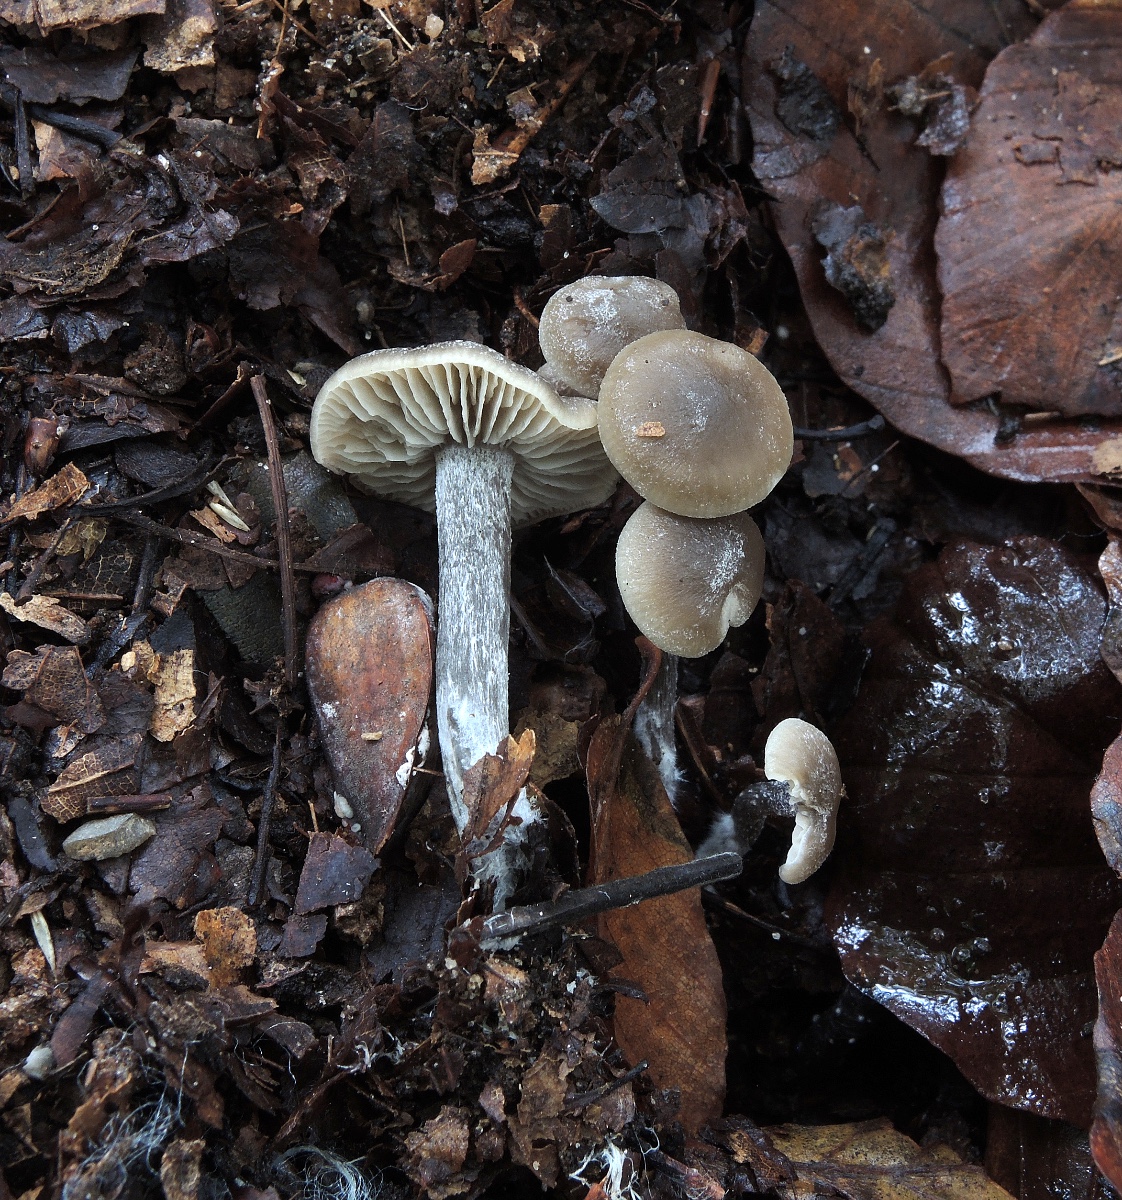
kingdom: Fungi
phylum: Basidiomycota
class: Agaricomycetes
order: Agaricales
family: Lyophyllaceae
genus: Myochromella
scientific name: Myochromella boudieri
